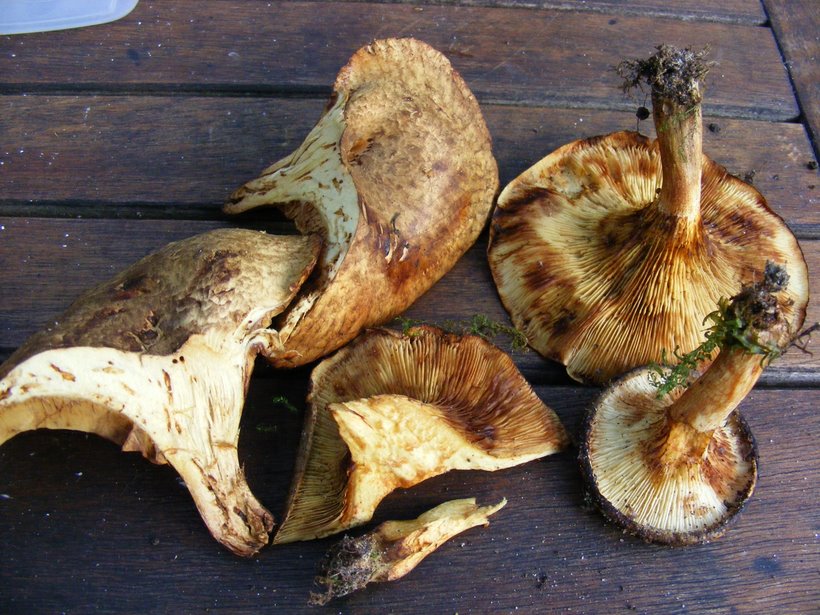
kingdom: Fungi
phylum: Basidiomycota
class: Agaricomycetes
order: Boletales
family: Paxillaceae
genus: Paxillus
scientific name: Paxillus rubicundulus
